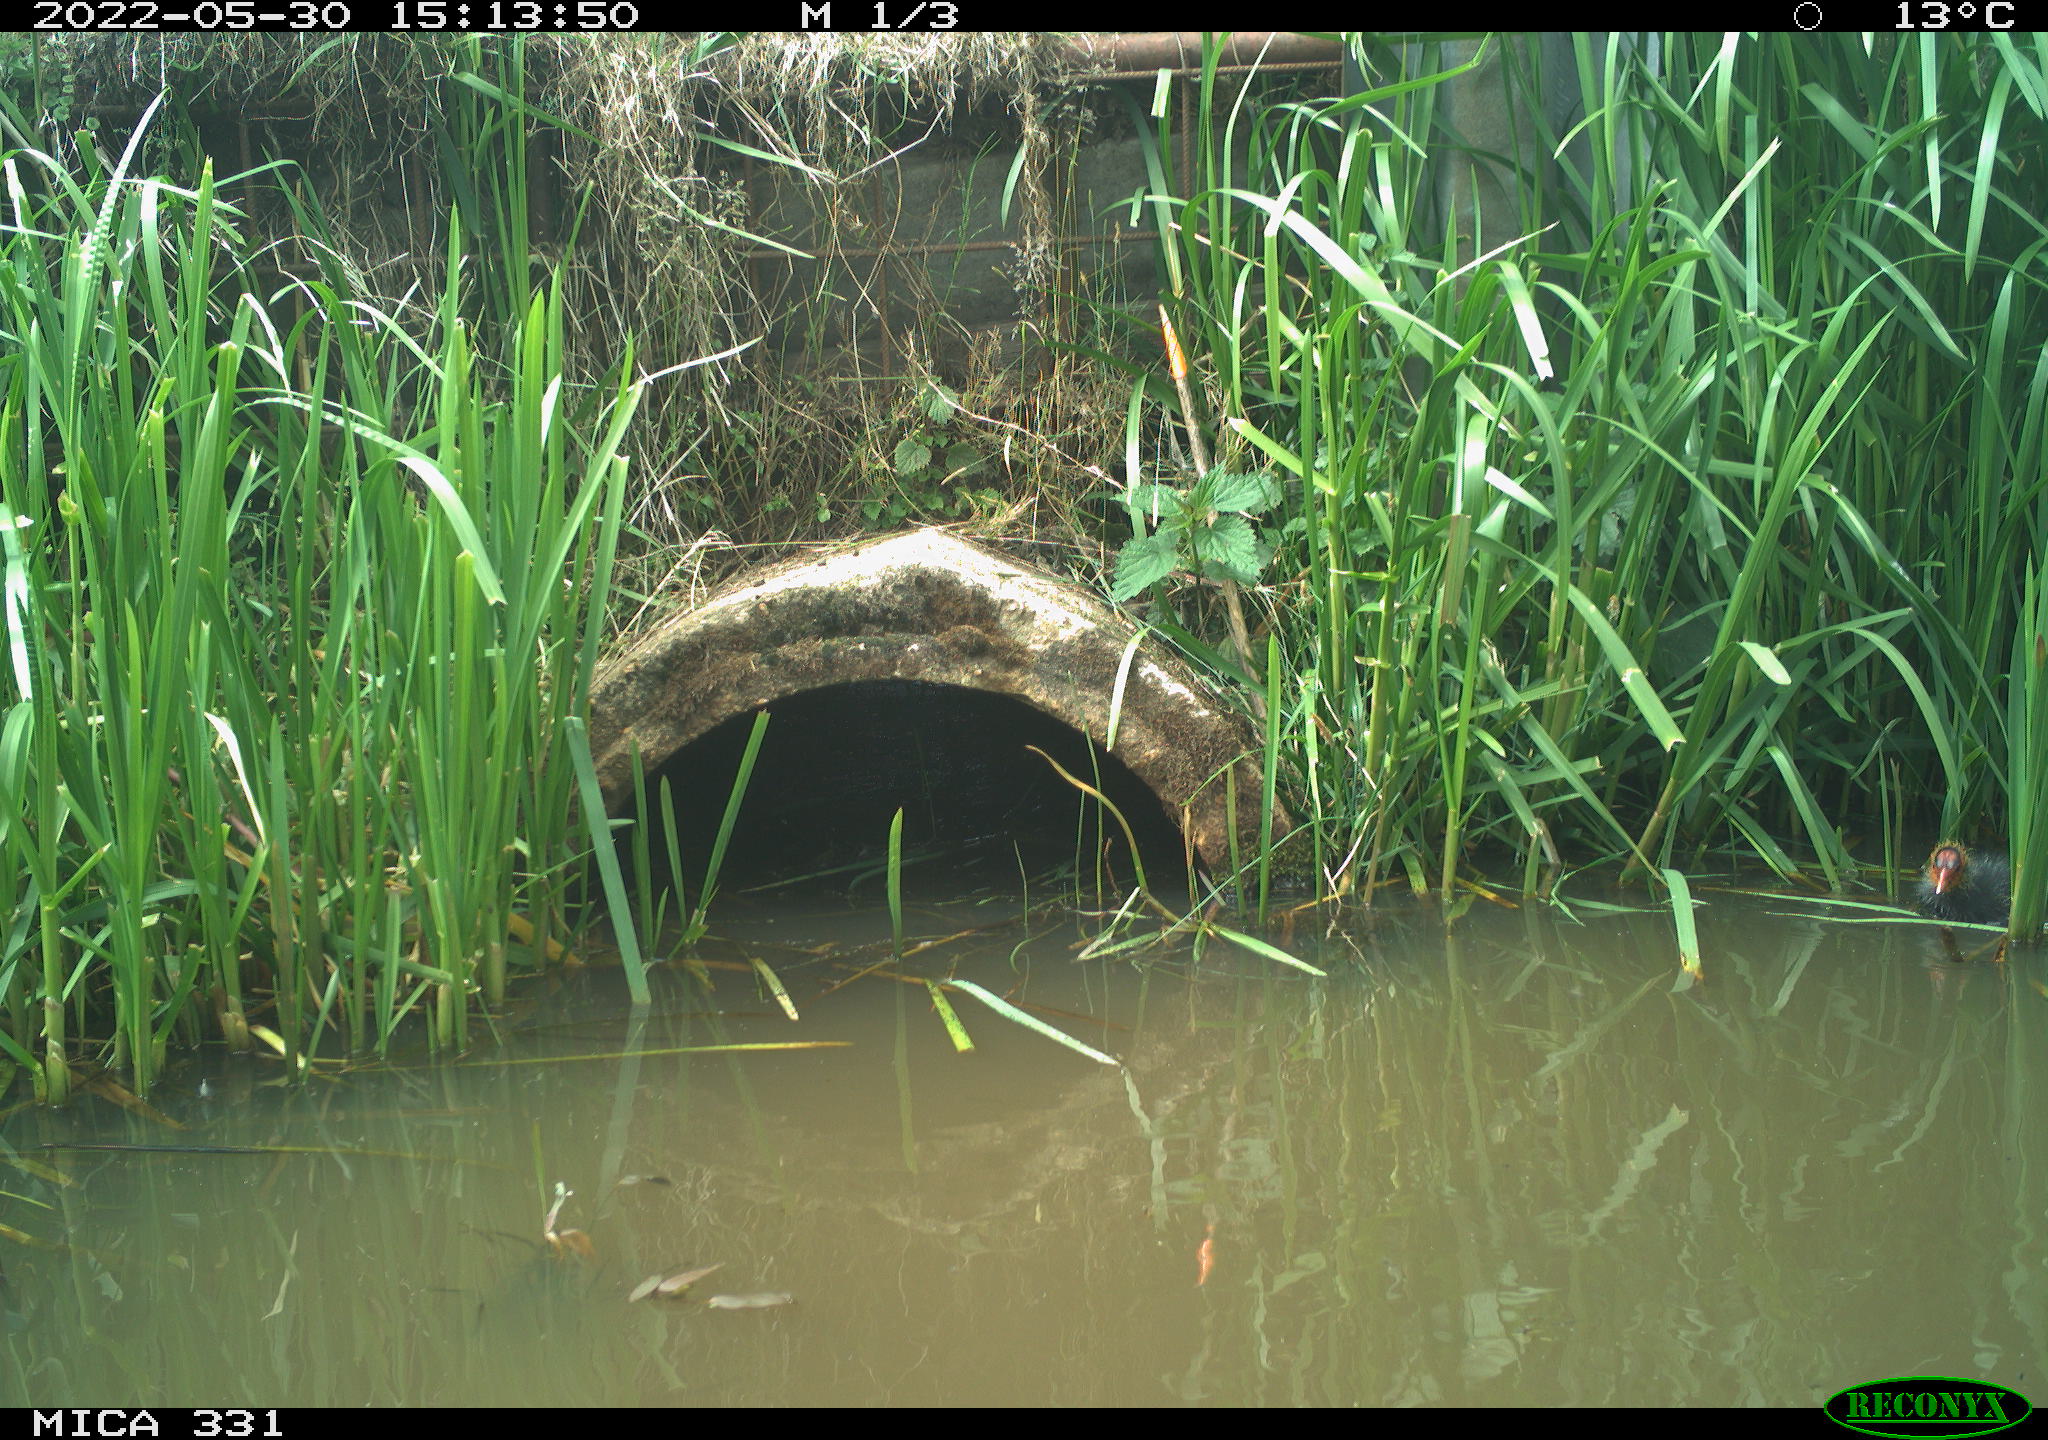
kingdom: Animalia
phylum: Chordata
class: Aves
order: Gruiformes
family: Rallidae
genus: Fulica
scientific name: Fulica atra
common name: Eurasian coot
